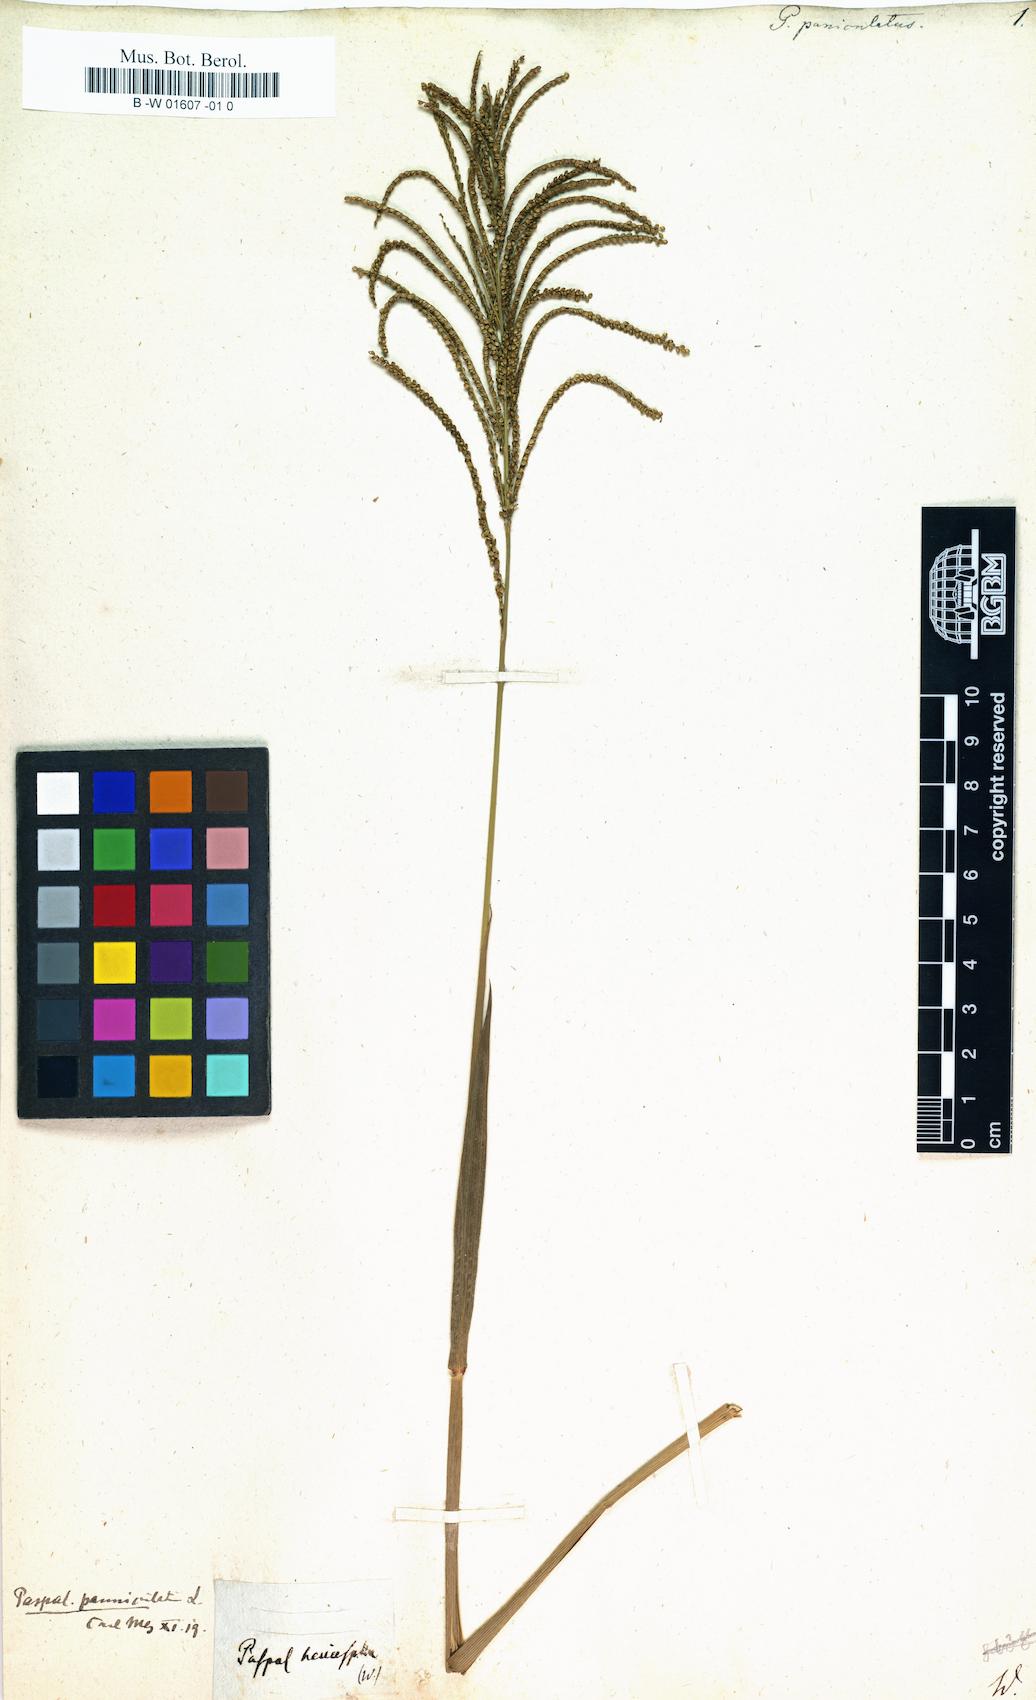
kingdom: Plantae
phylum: Tracheophyta
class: Liliopsida
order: Poales
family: Poaceae
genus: Paspalus
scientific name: Paspalus
